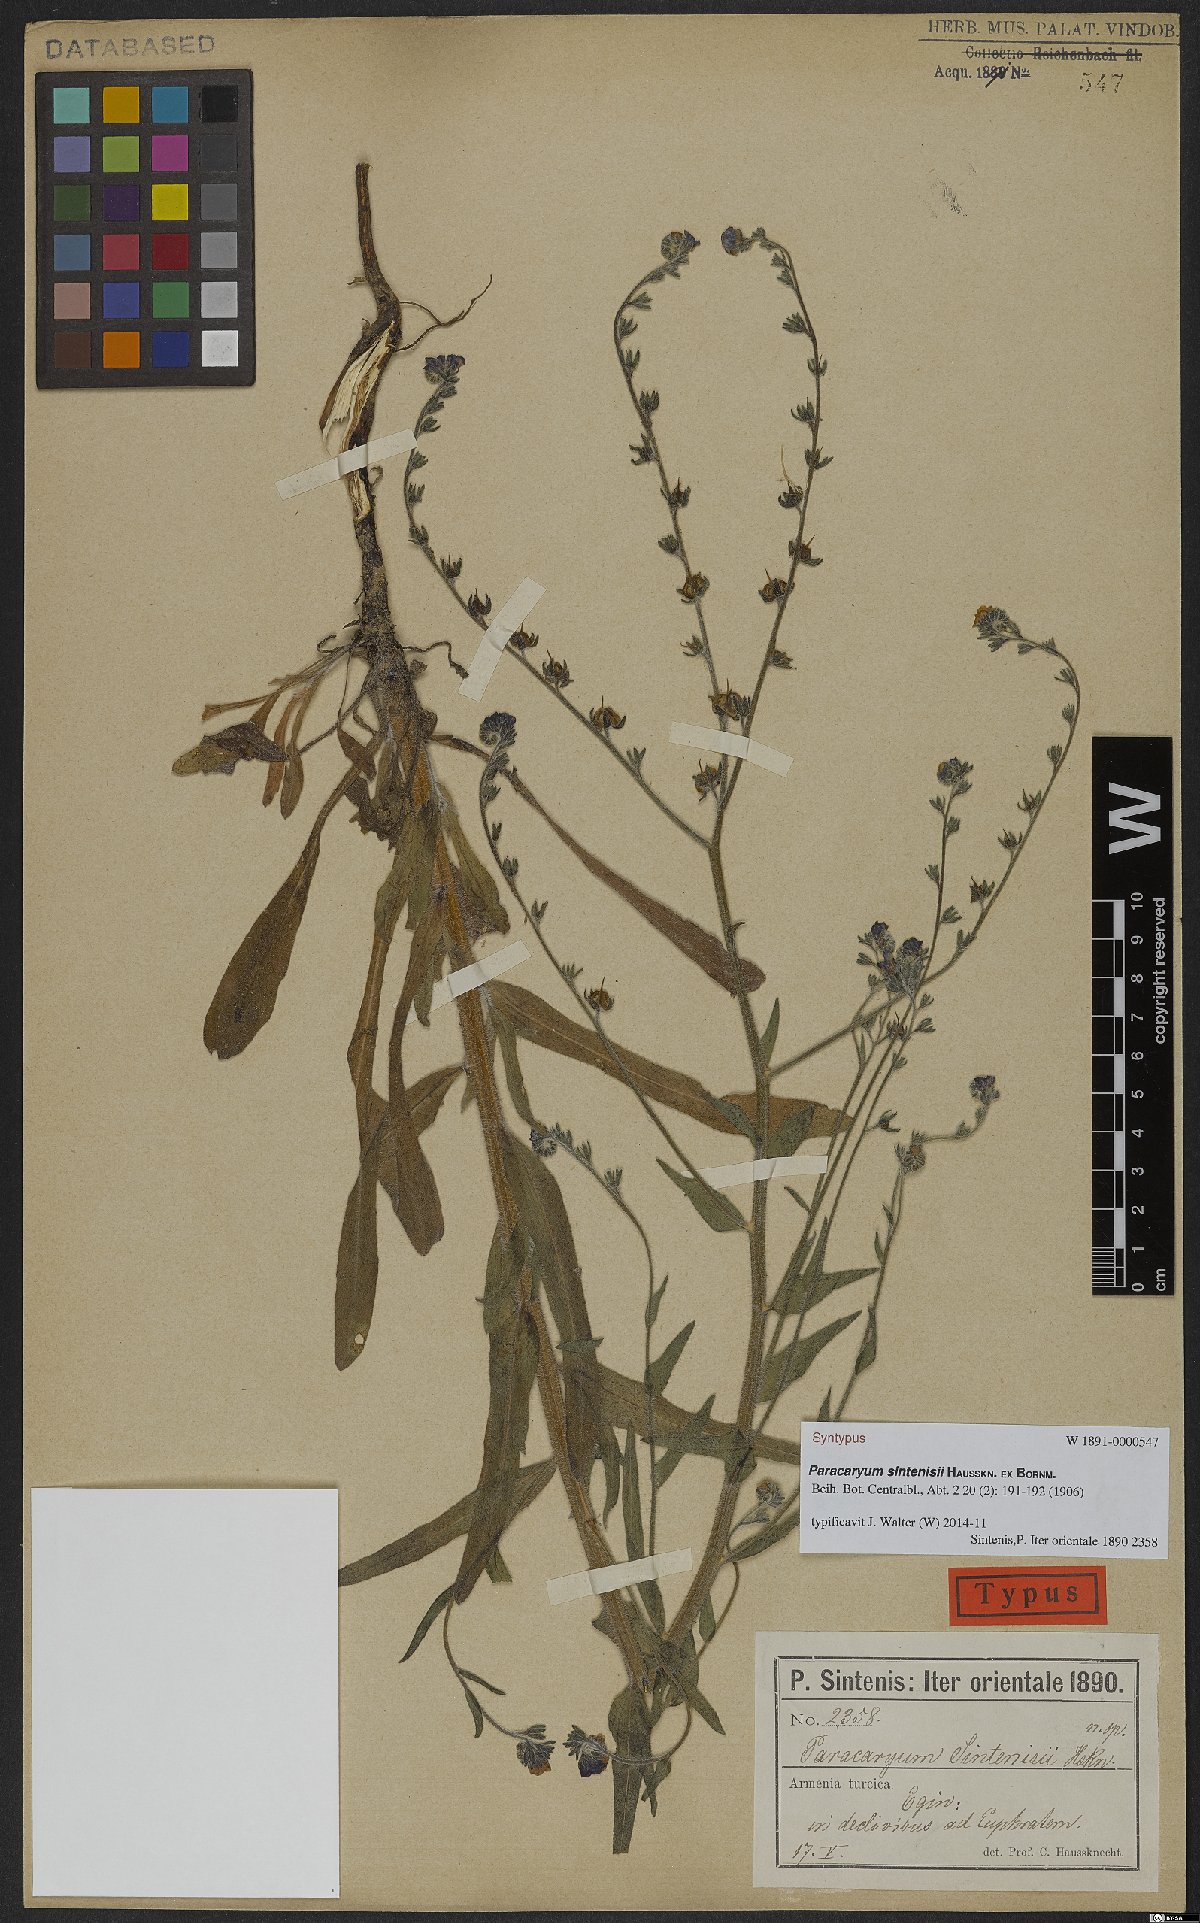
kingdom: Plantae
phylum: Tracheophyta
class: Magnoliopsida
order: Boraginales
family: Boraginaceae
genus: Paracaryum
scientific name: Paracaryum sintenisii
